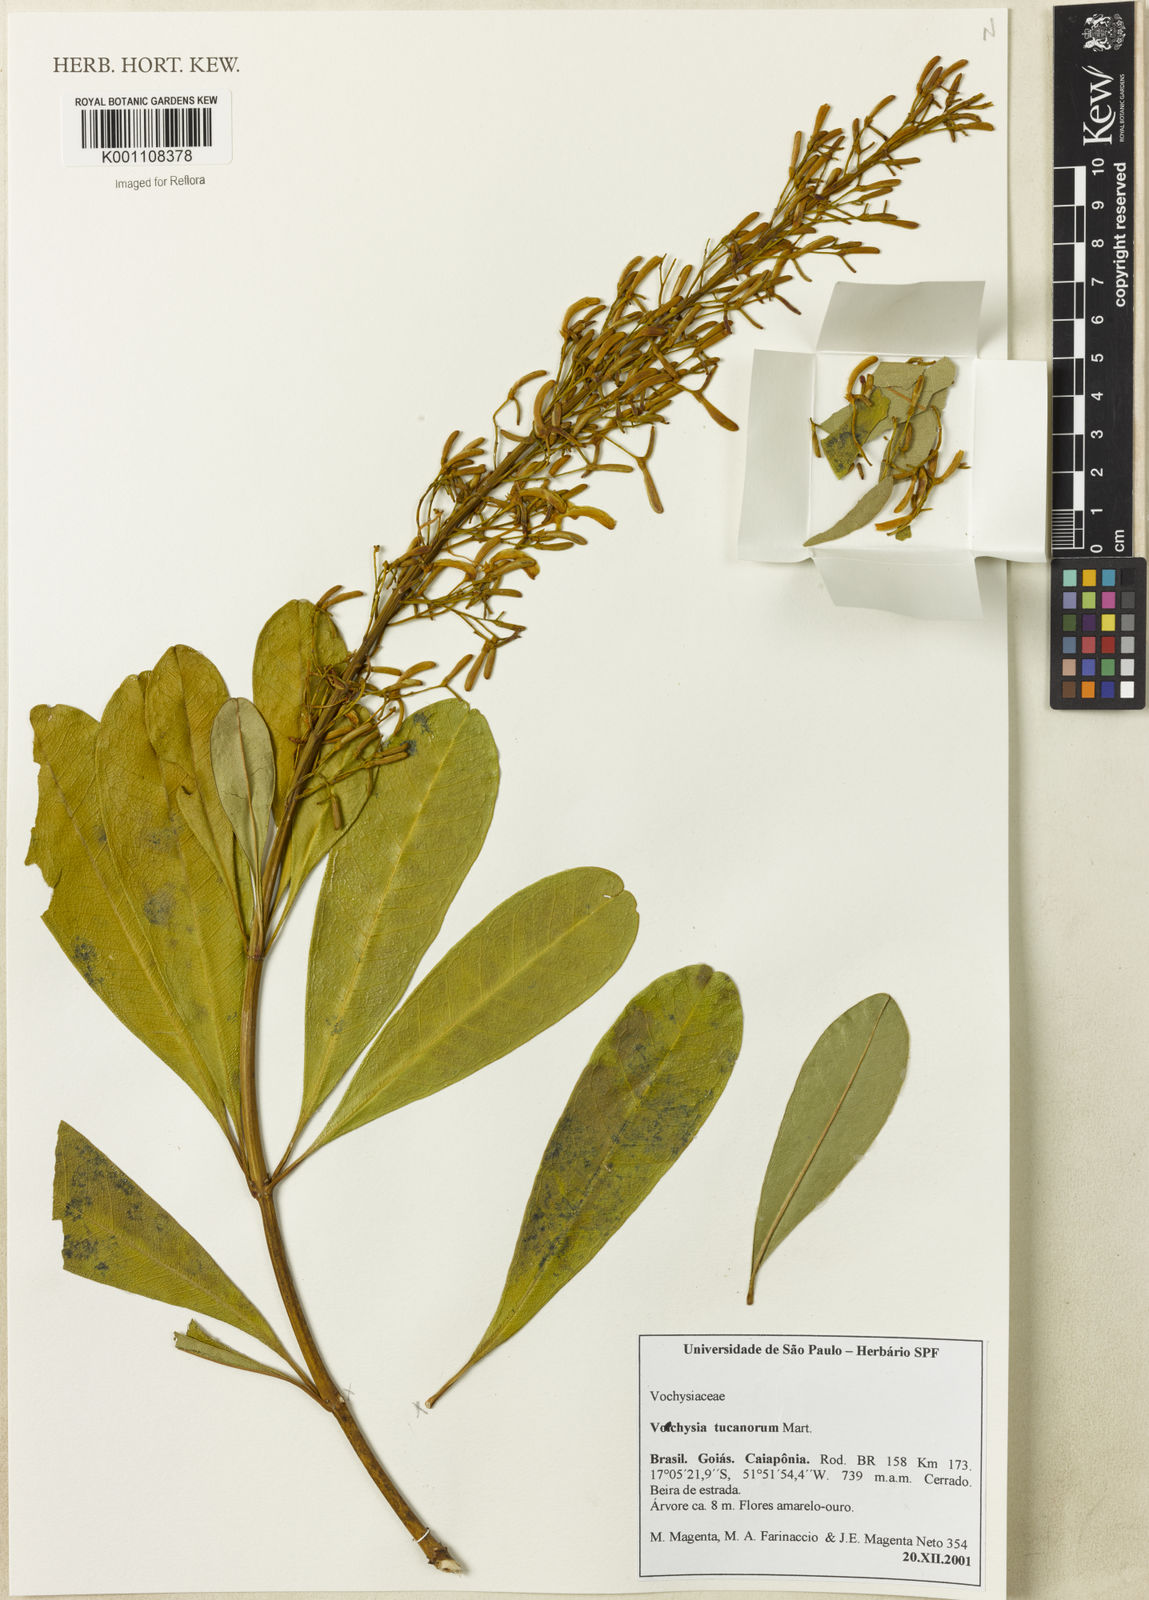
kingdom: Plantae
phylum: Tracheophyta
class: Magnoliopsida
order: Myrtales
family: Vochysiaceae
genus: Vochysia
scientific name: Vochysia tucanorum
